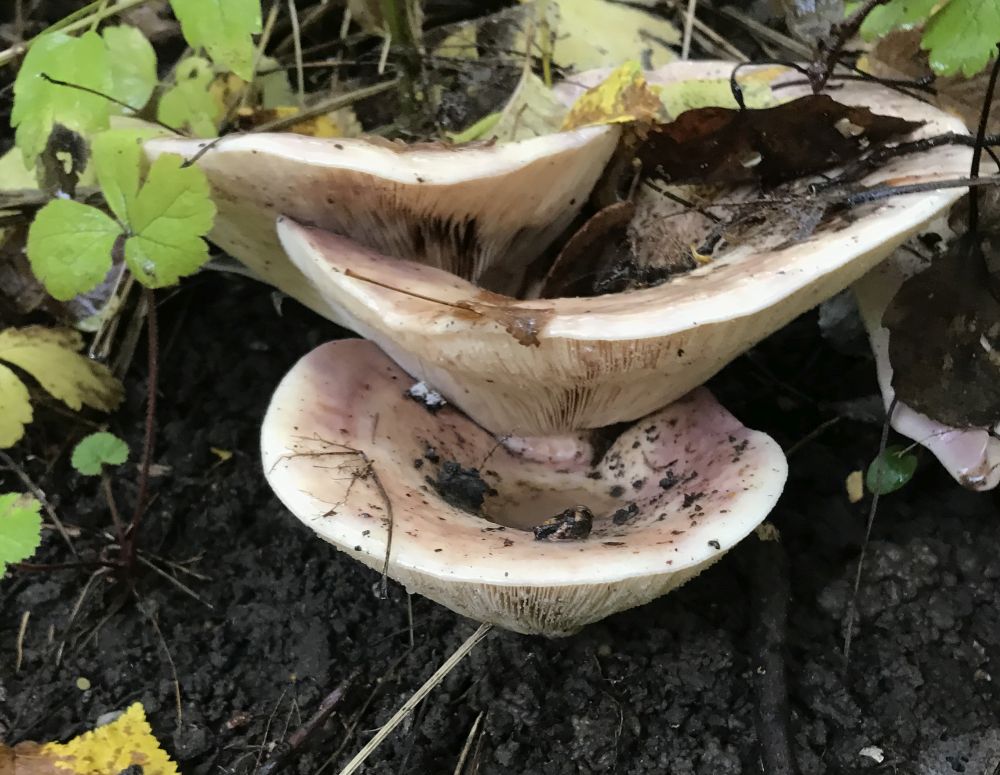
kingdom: Fungi
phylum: Basidiomycota
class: Agaricomycetes
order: Russulales
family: Russulaceae
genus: Lactarius
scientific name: Lactarius controversus
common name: rosabladet mælkehat
